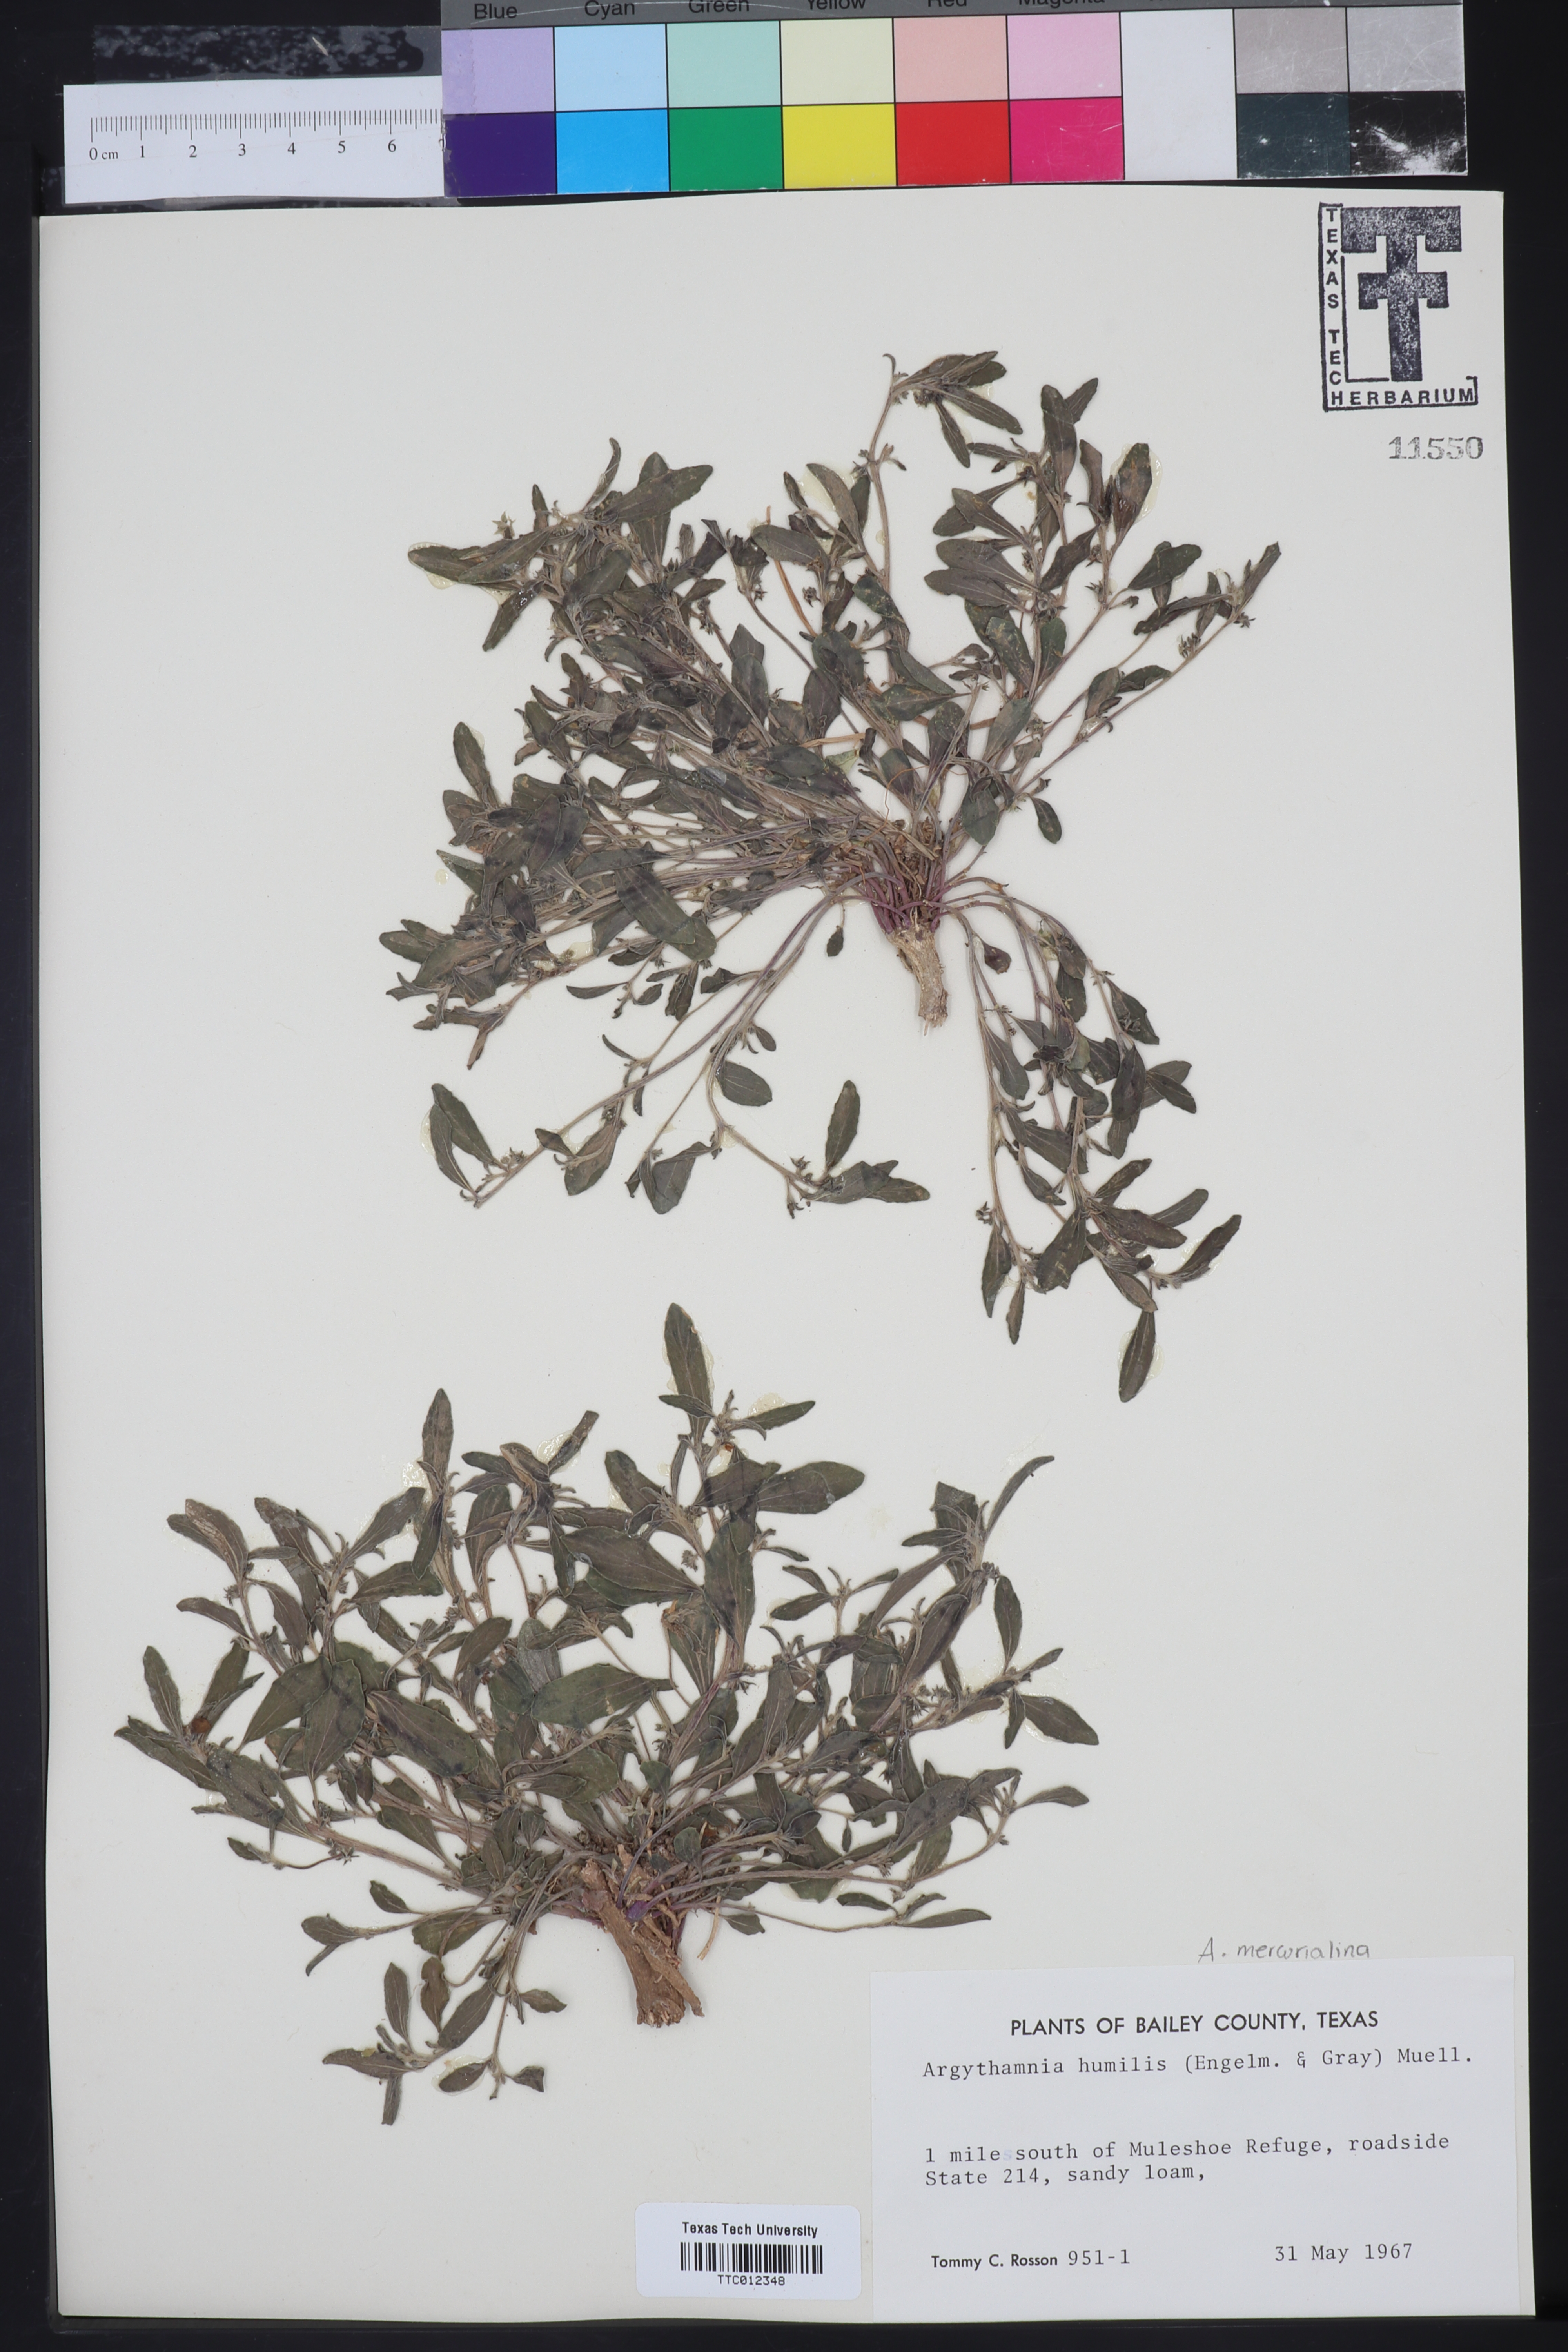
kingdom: Plantae
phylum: Tracheophyta
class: Magnoliopsida
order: Malpighiales
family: Euphorbiaceae
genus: Ditaxis
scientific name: Ditaxis humilis
